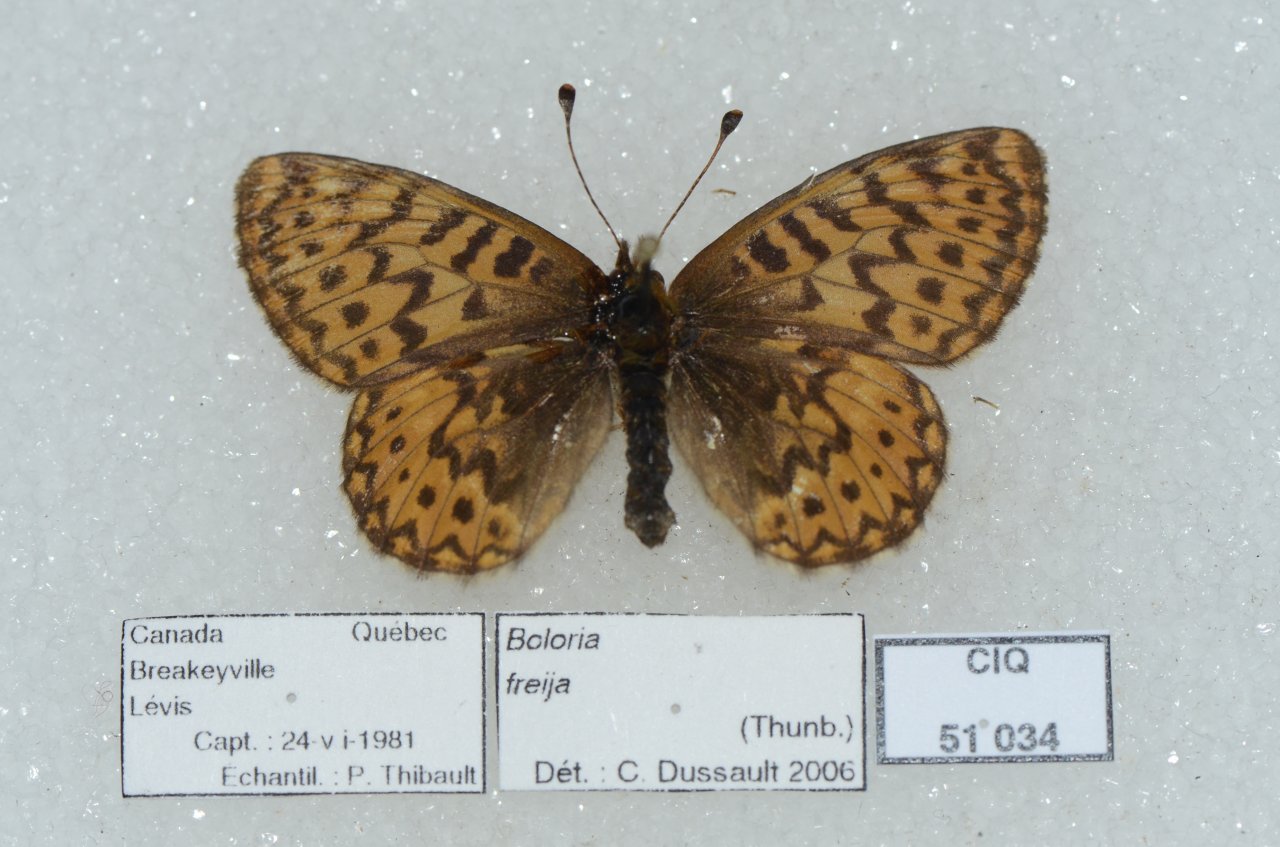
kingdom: Animalia
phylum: Arthropoda
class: Insecta
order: Lepidoptera
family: Nymphalidae
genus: Boloria
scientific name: Boloria freija
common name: Freija Fritillary
